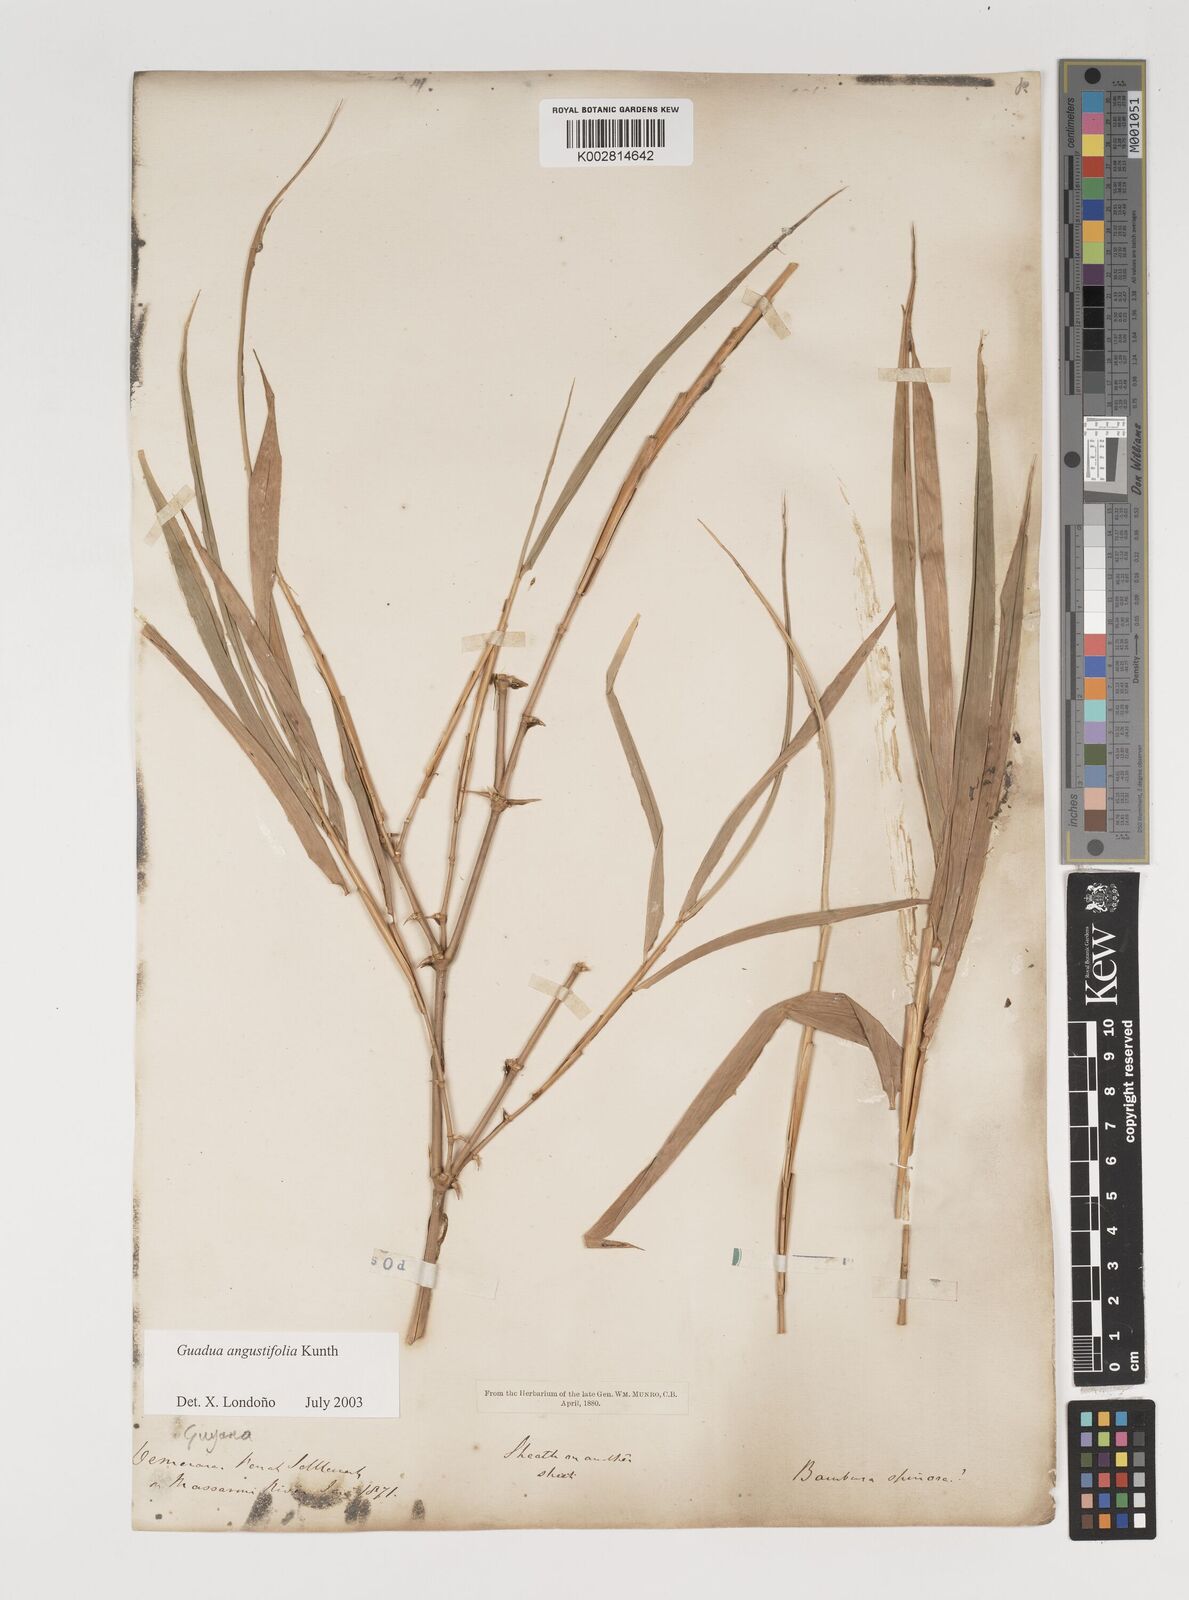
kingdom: Plantae
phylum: Tracheophyta
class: Liliopsida
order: Poales
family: Poaceae
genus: Guadua
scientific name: Guadua angustifolia
